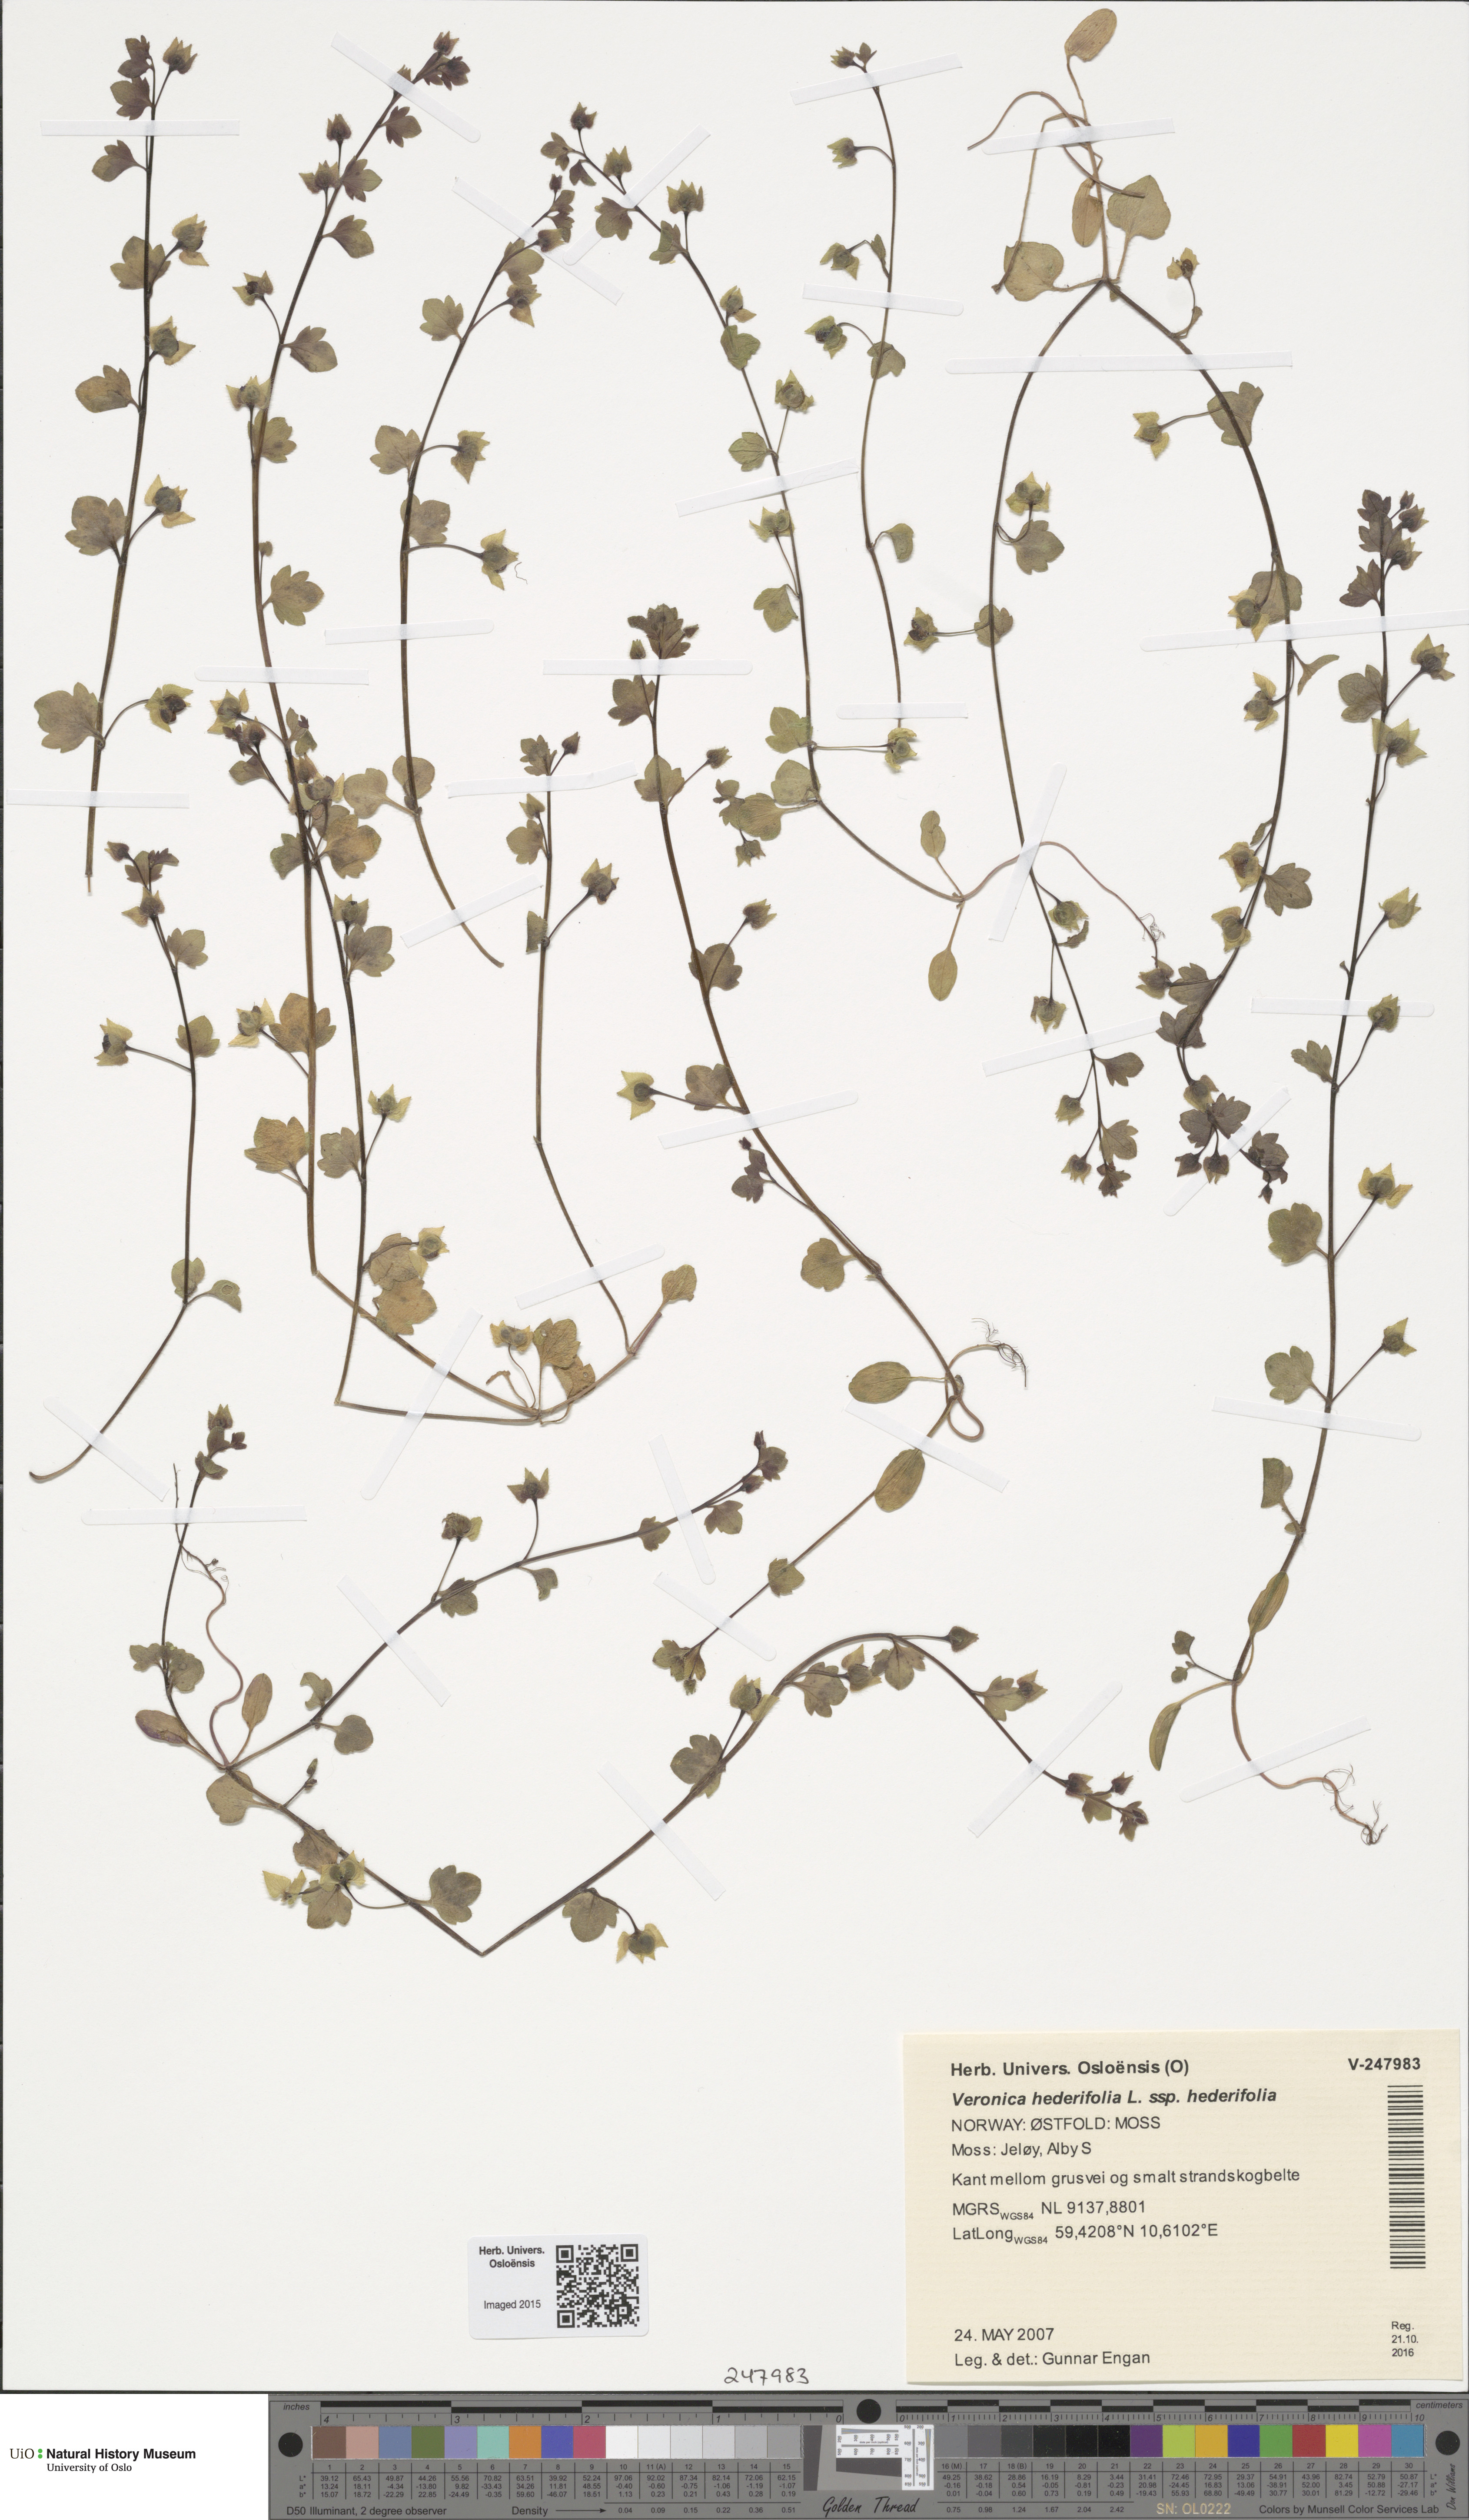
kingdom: Plantae
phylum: Tracheophyta
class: Magnoliopsida
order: Lamiales
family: Plantaginaceae
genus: Veronica
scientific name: Veronica hederifolia
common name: Ivy-leaved speedwell
